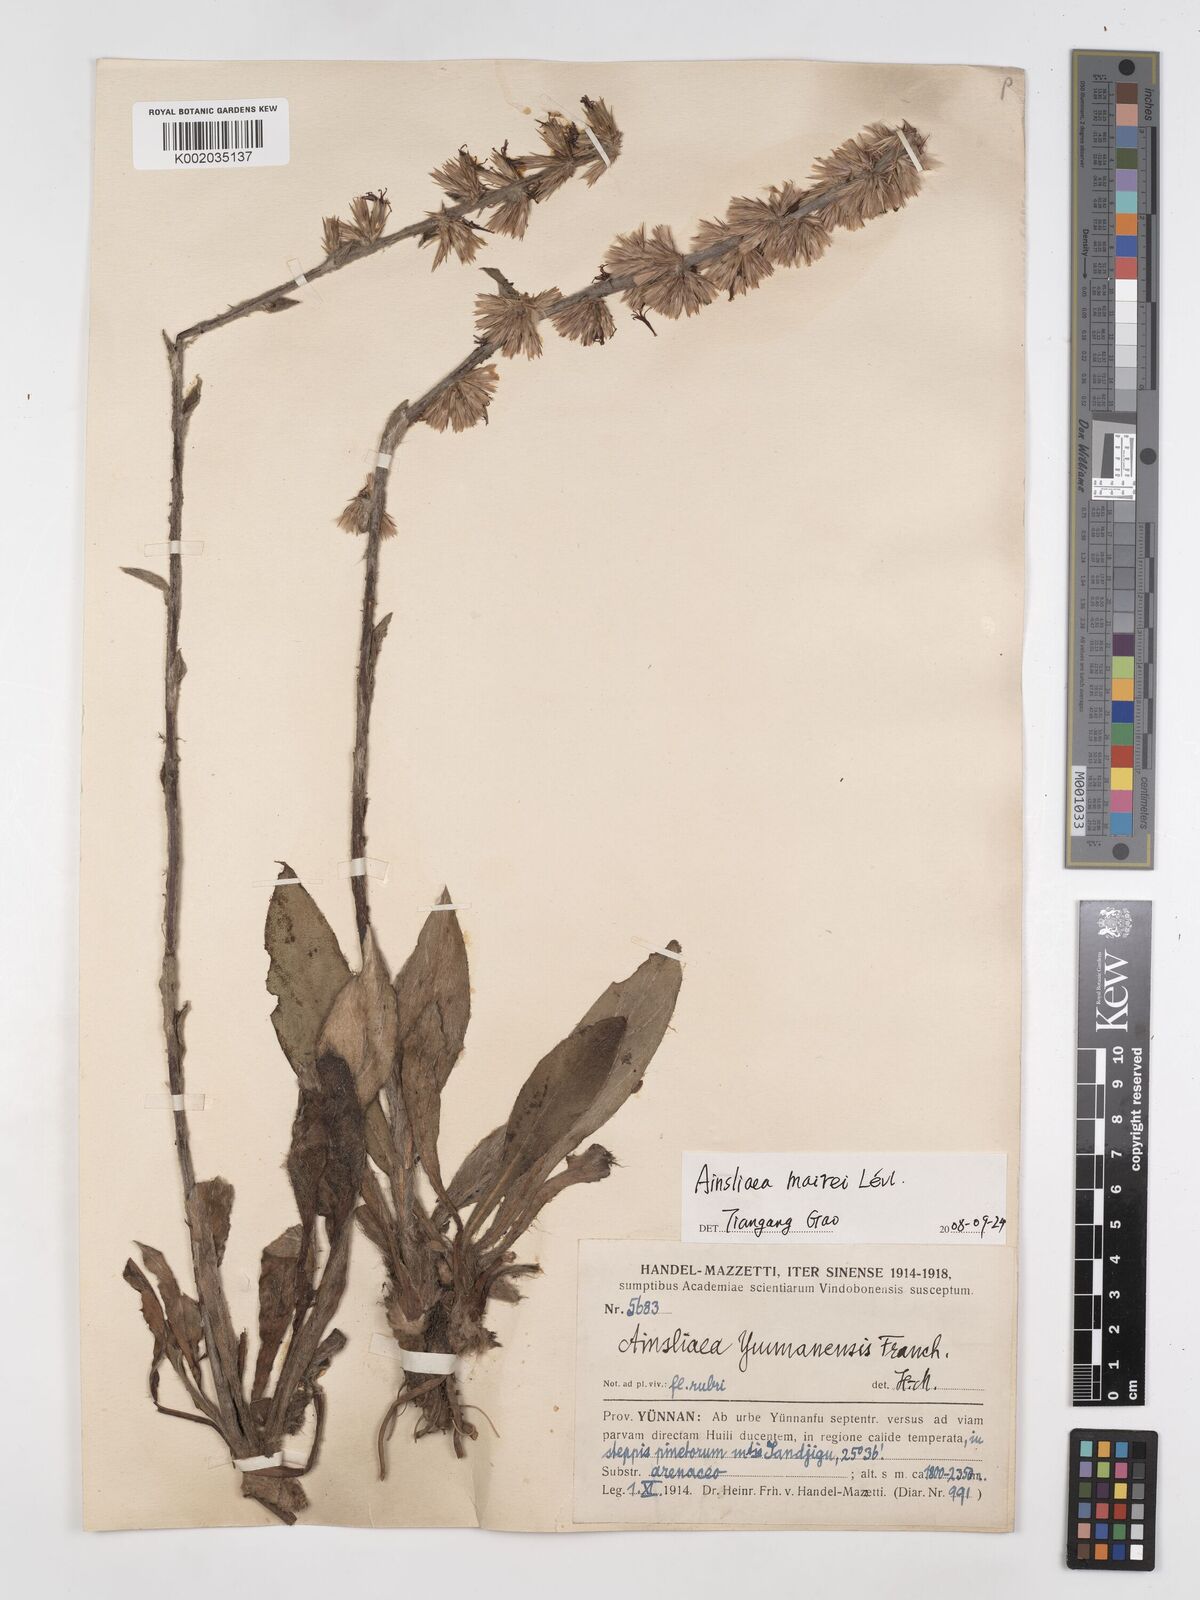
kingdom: Plantae
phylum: Tracheophyta
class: Magnoliopsida
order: Asterales
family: Asteraceae
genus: Ainsliaea
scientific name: Ainsliaea mairei
